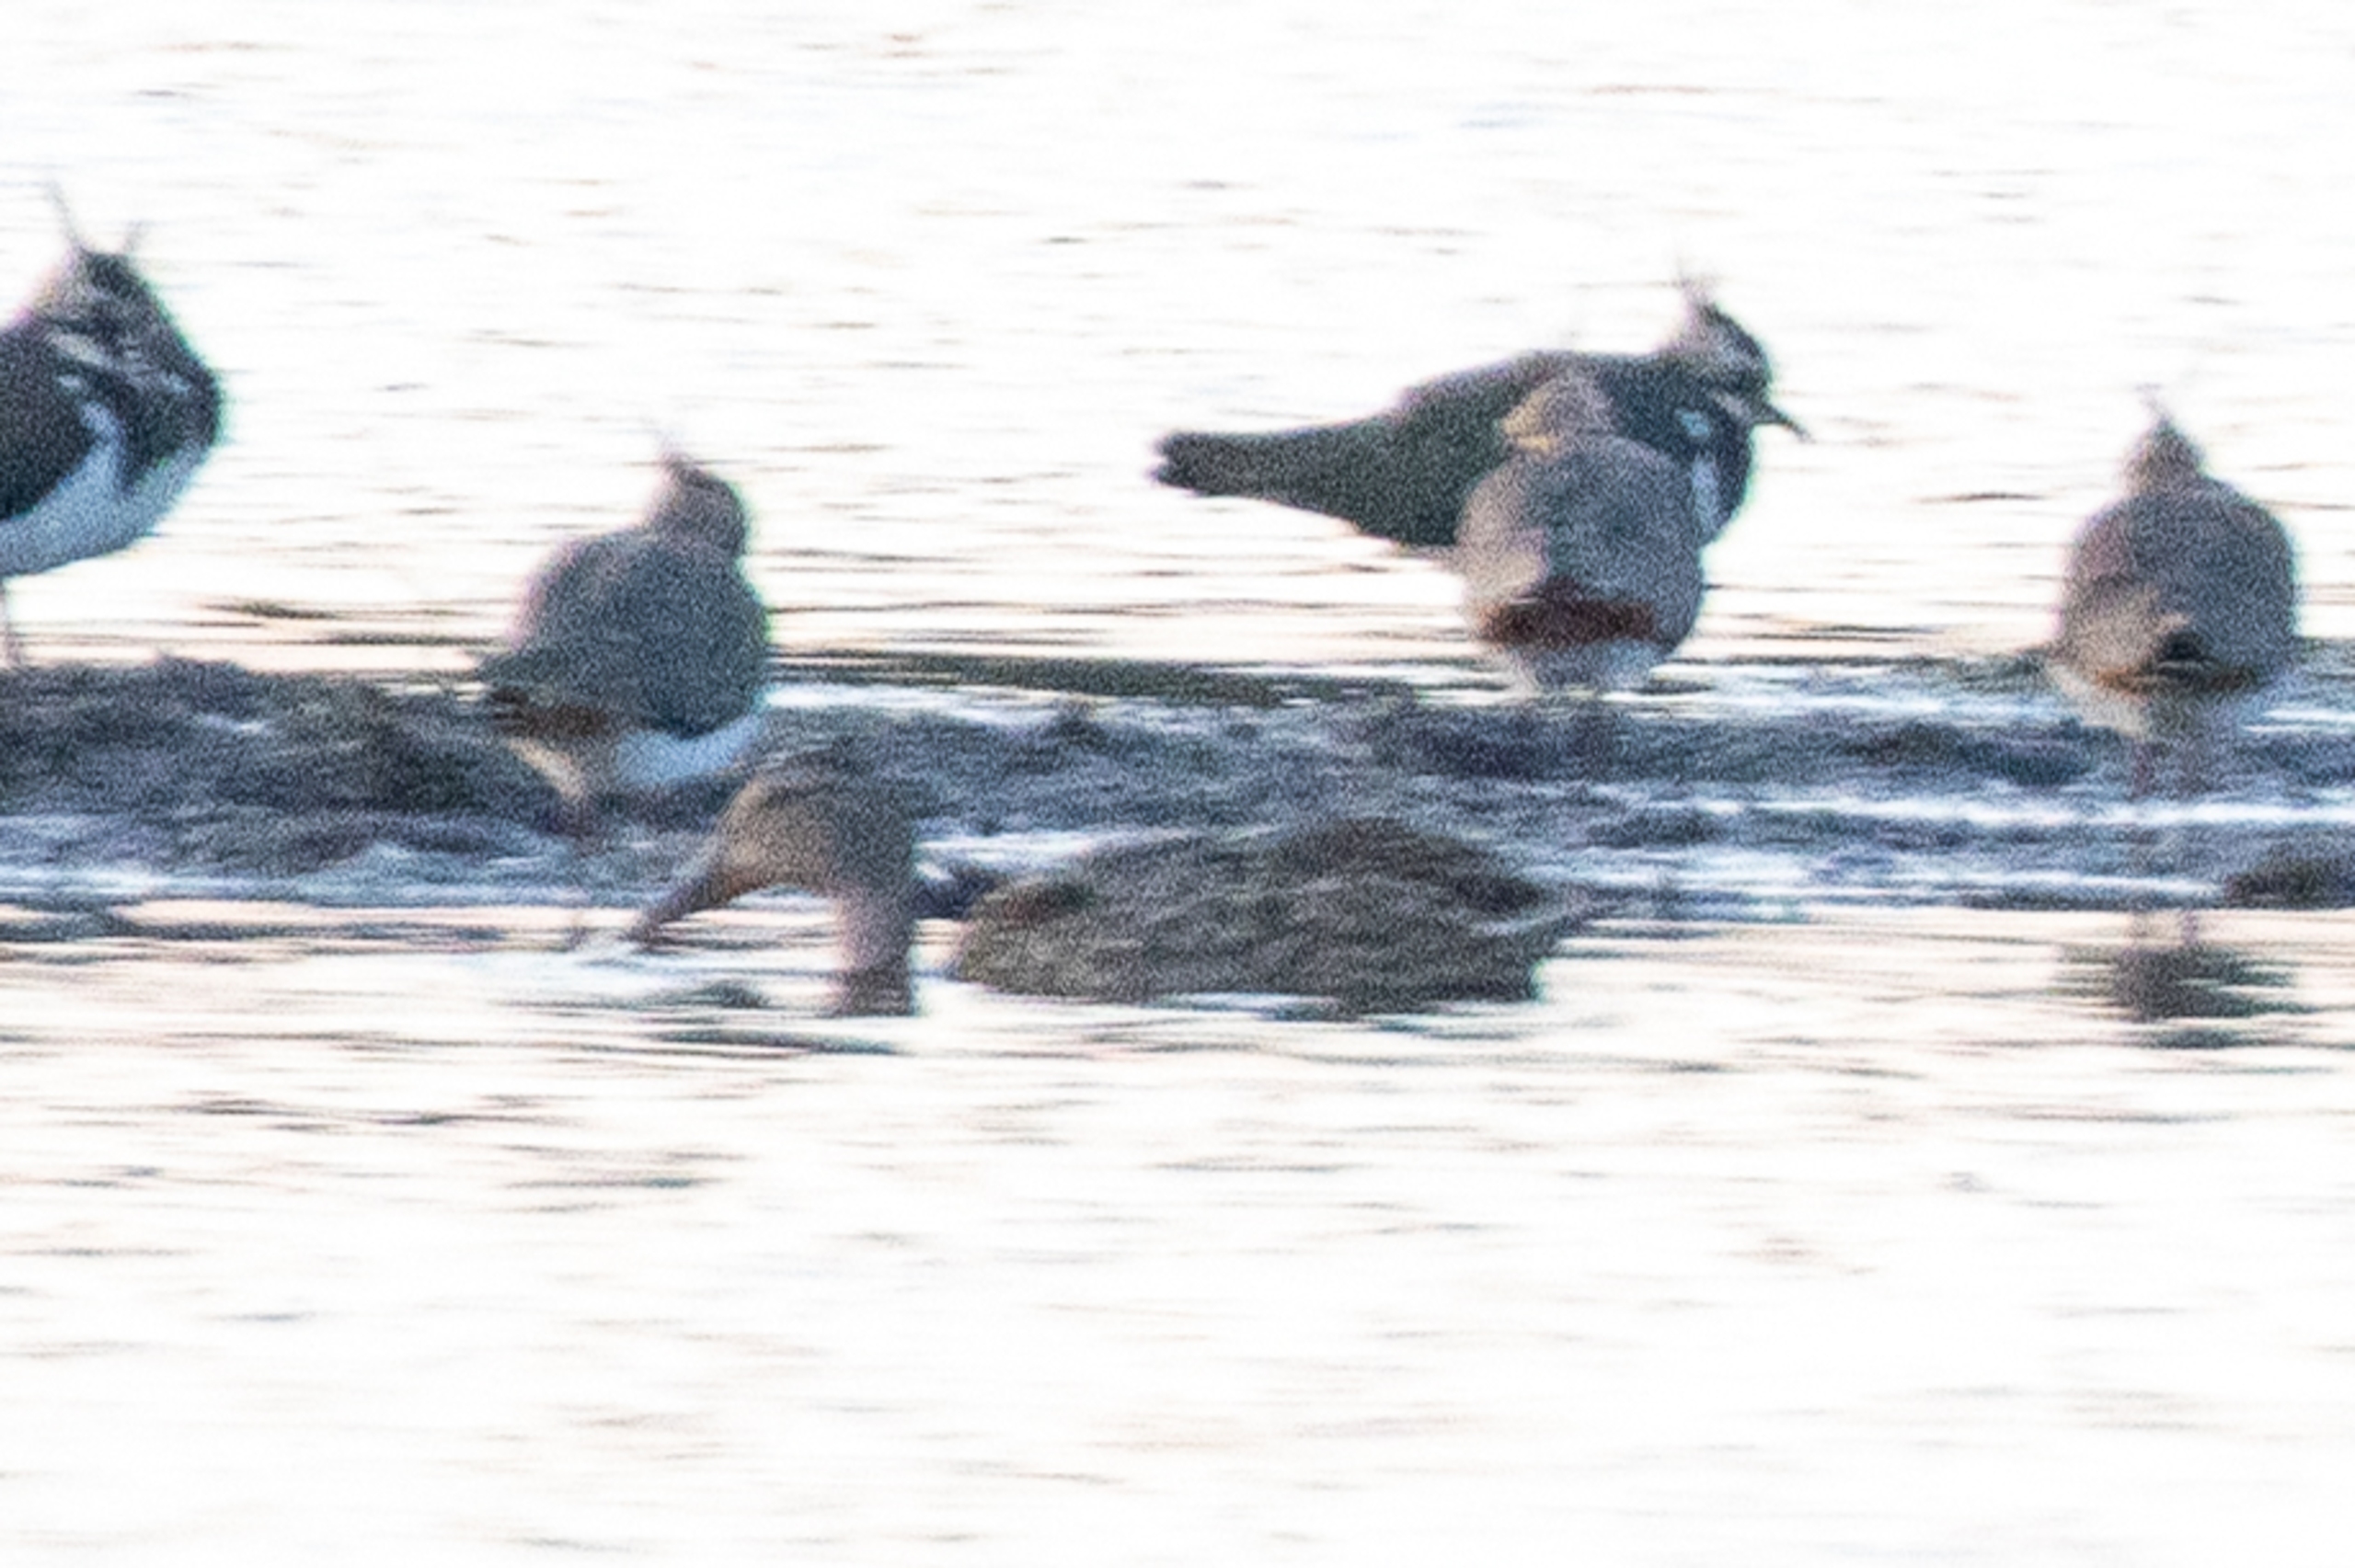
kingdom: Animalia
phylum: Chordata
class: Aves
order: Anseriformes
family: Anatidae
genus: Anas
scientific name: Anas platyrhynchos
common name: Gråand
